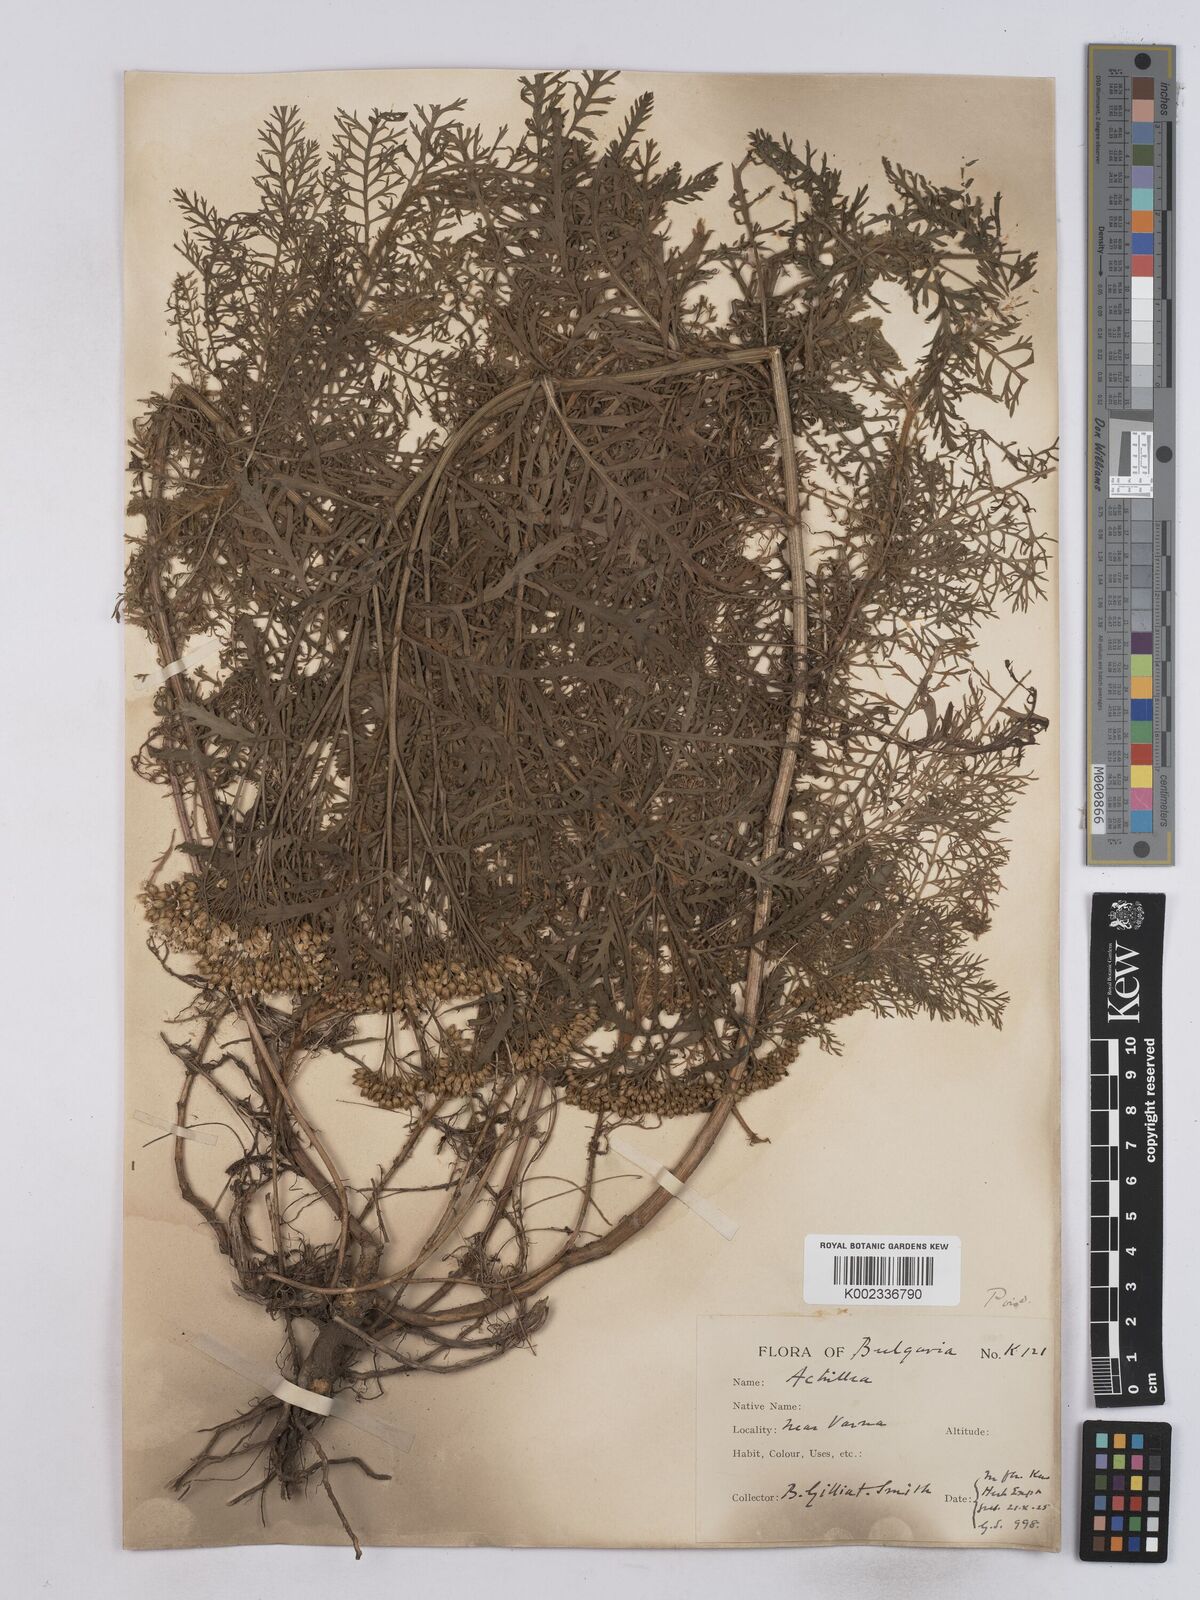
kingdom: Plantae
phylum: Tracheophyta
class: Magnoliopsida
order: Asterales
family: Asteraceae
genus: Achillea
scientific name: Achillea crithmifolia
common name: Yarrow
